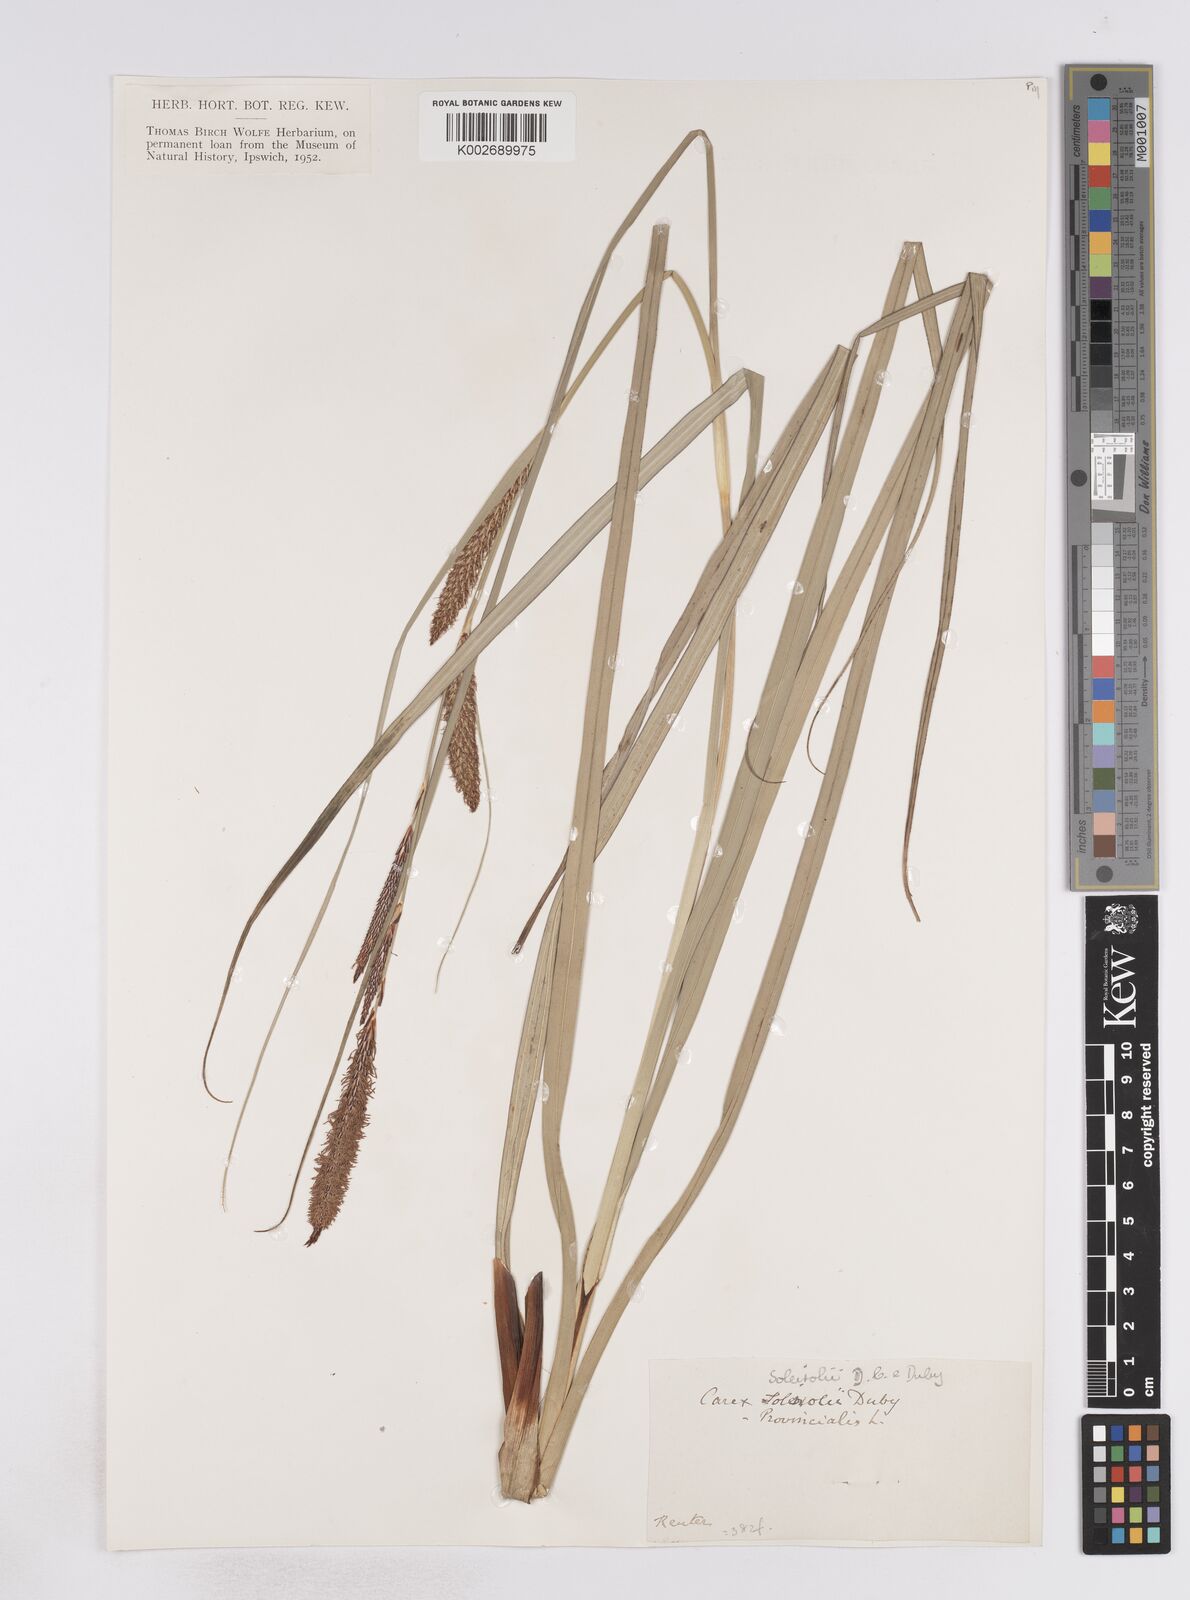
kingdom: Plantae
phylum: Tracheophyta
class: Liliopsida
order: Poales
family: Cyperaceae
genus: Carex
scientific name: Carex hispida
